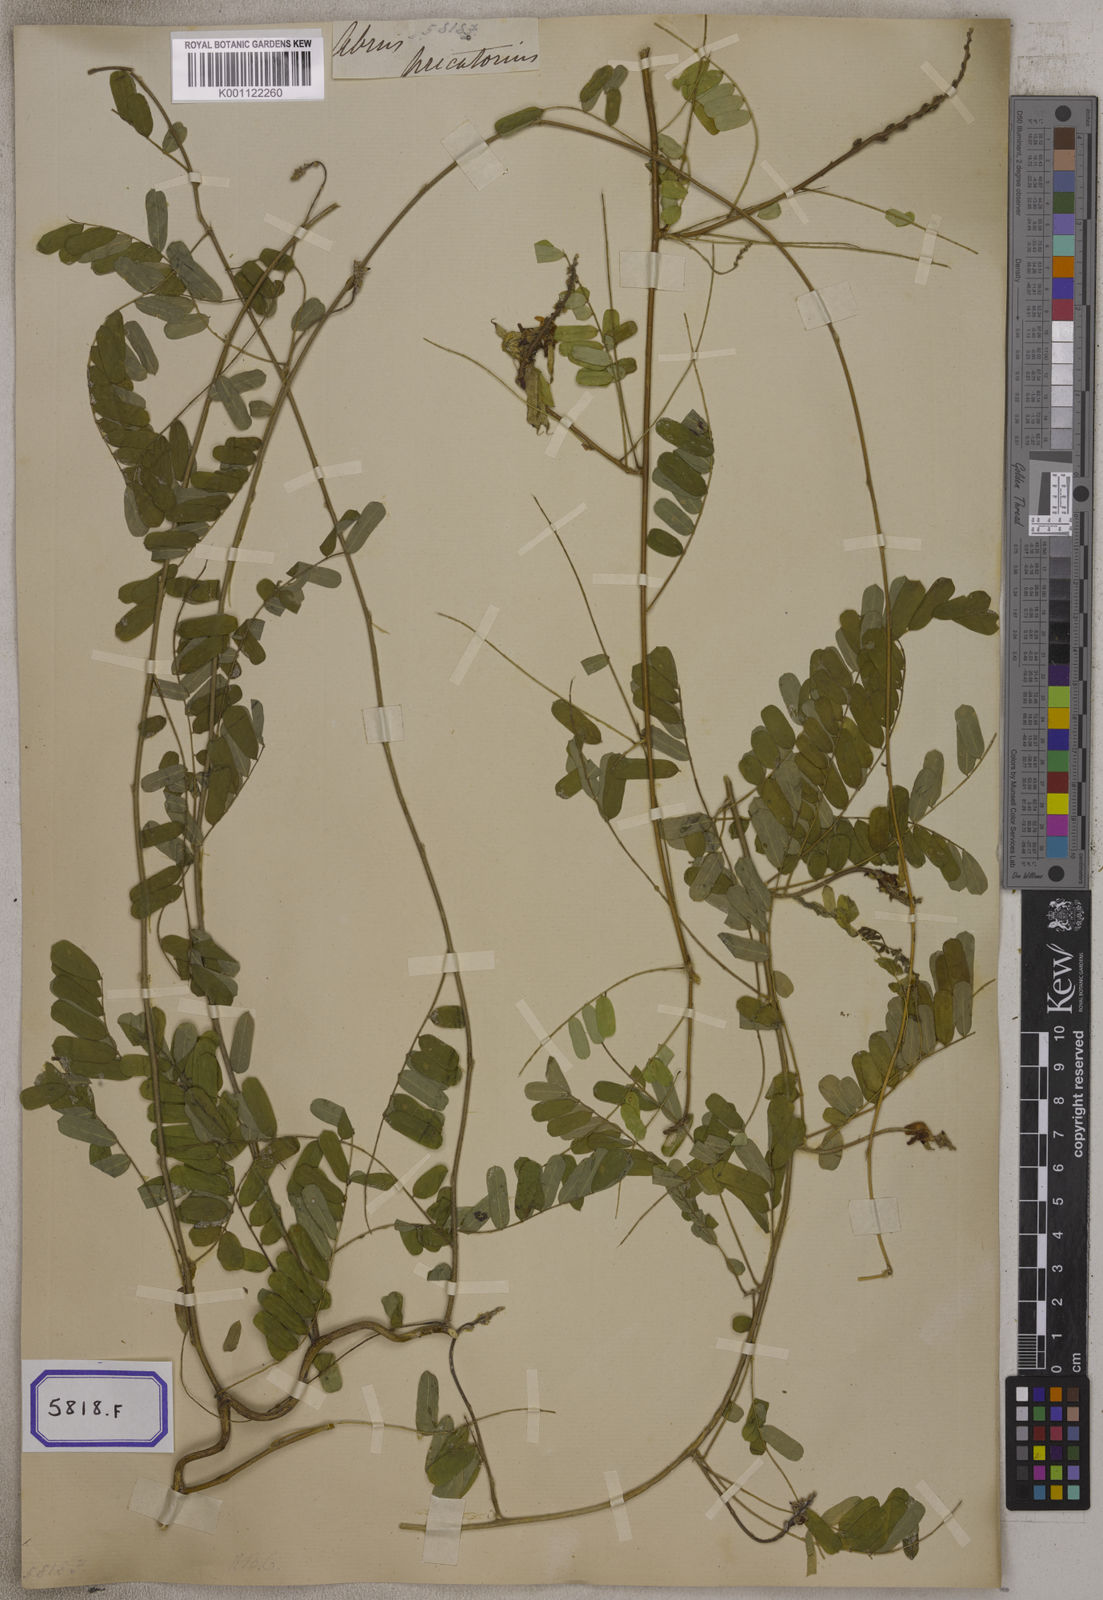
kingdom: Plantae
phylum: Tracheophyta
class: Magnoliopsida
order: Fabales
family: Fabaceae
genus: Abrus
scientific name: Abrus precatorius
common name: Rosarypea
